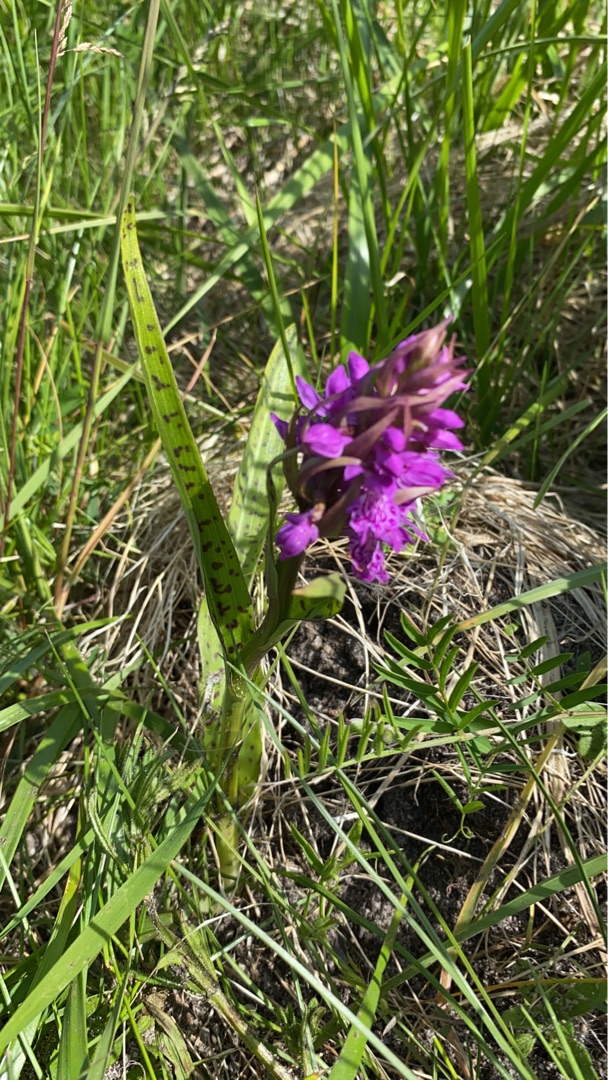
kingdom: Plantae
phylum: Tracheophyta
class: Liliopsida
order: Asparagales
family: Orchidaceae
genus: Dactylorhiza
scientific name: Dactylorhiza majalis
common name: Maj-gøgeurt
